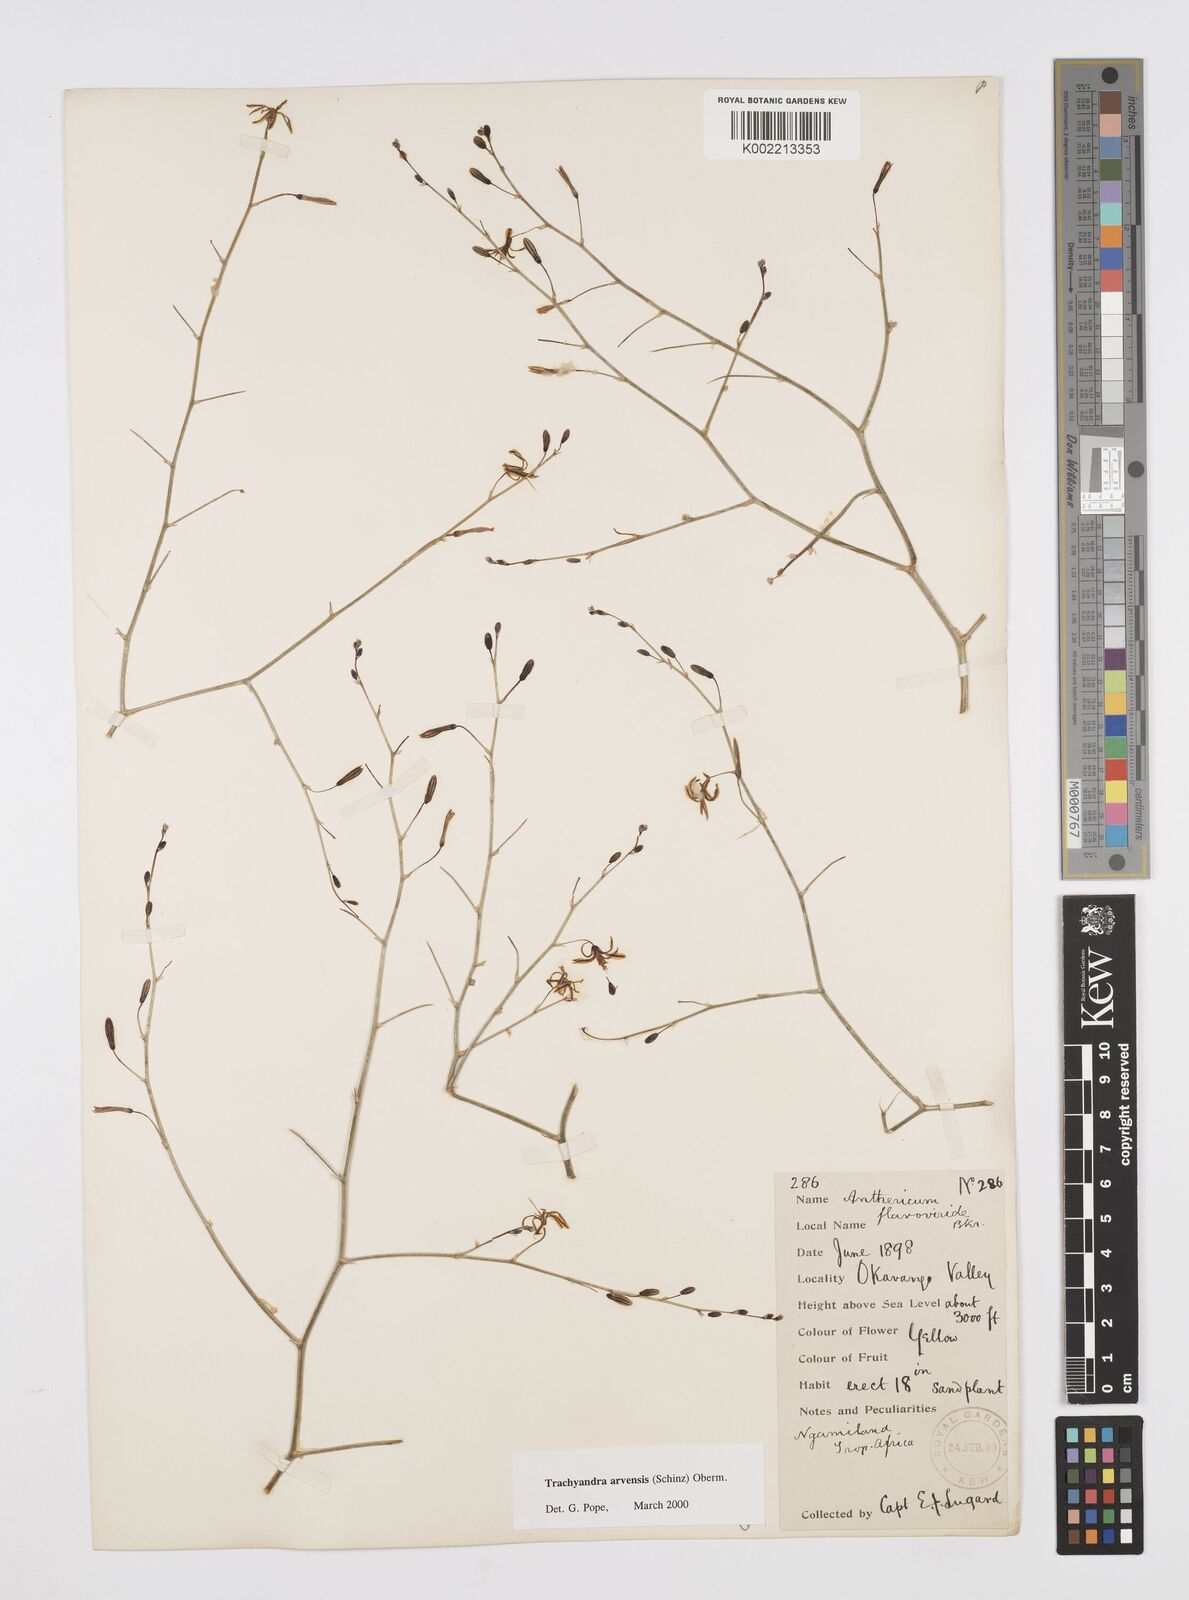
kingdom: Plantae
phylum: Tracheophyta
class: Liliopsida
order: Asparagales
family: Asphodelaceae
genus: Trachyandra
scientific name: Trachyandra arvensis
